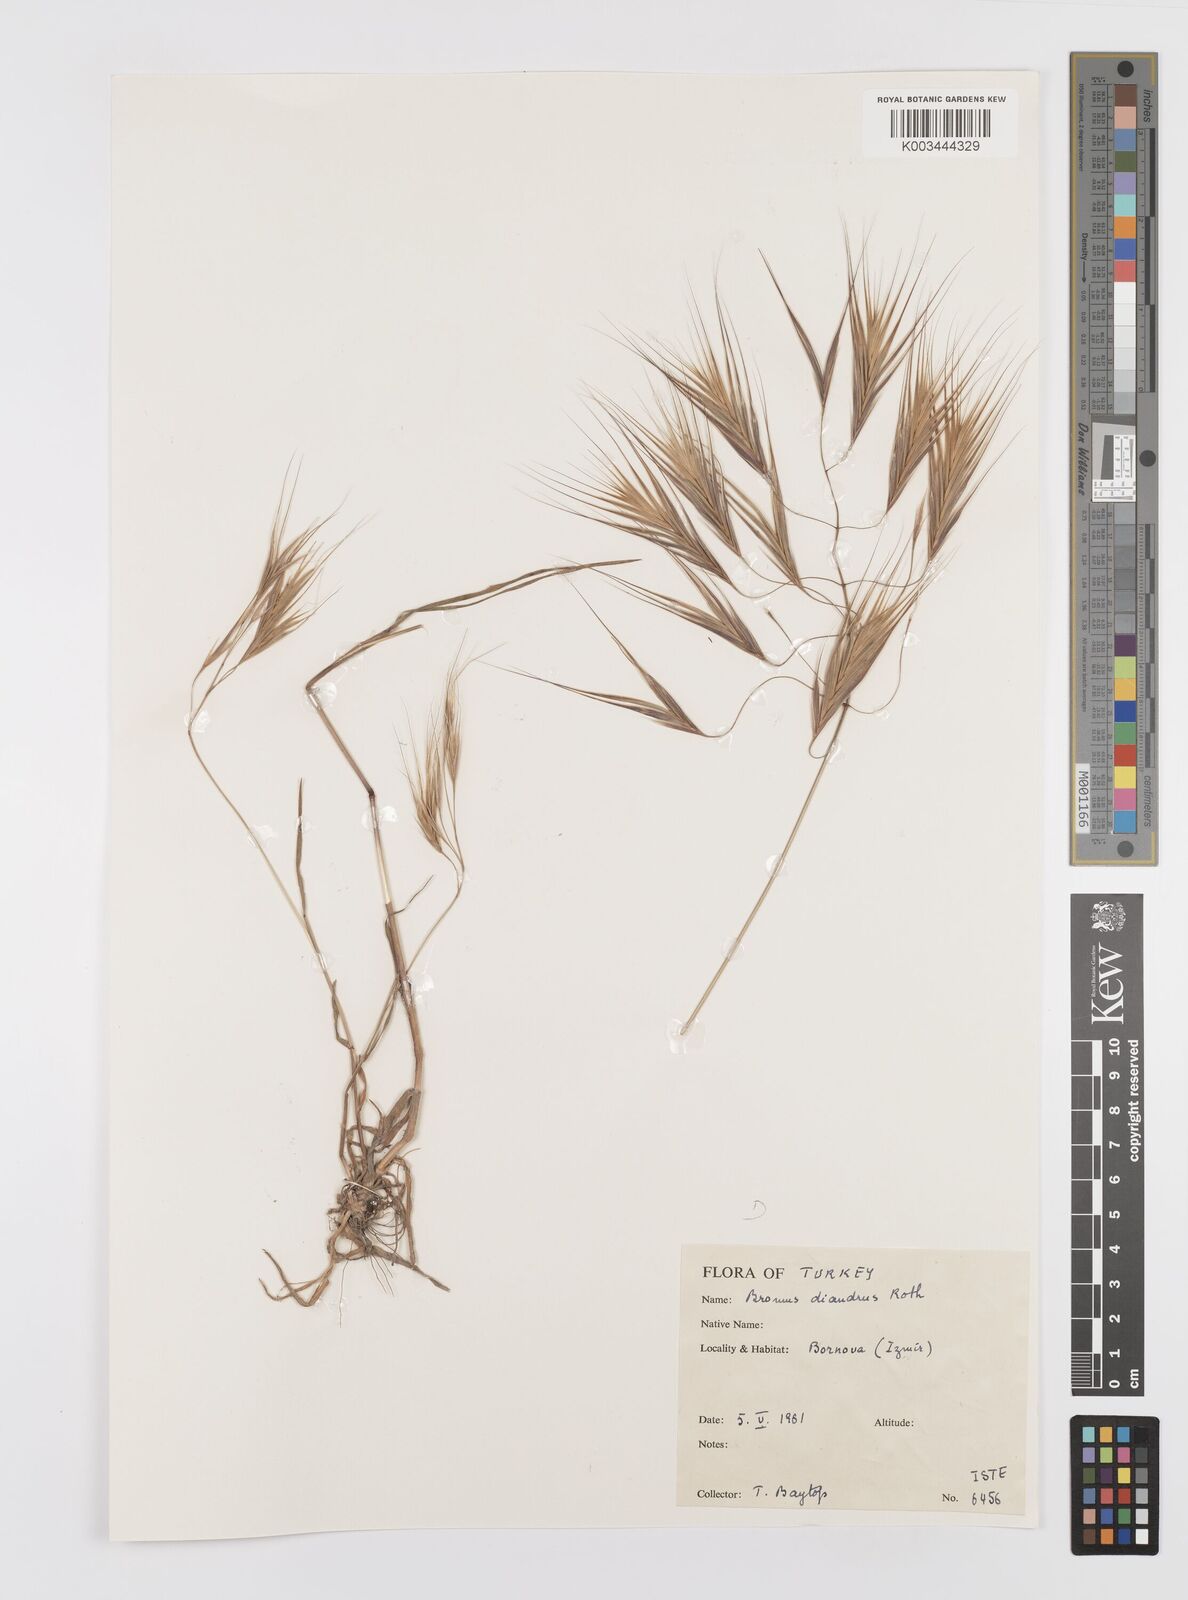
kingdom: Plantae
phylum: Tracheophyta
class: Liliopsida
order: Poales
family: Poaceae
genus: Bromus
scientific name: Bromus diandrus
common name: Ripgut brome
